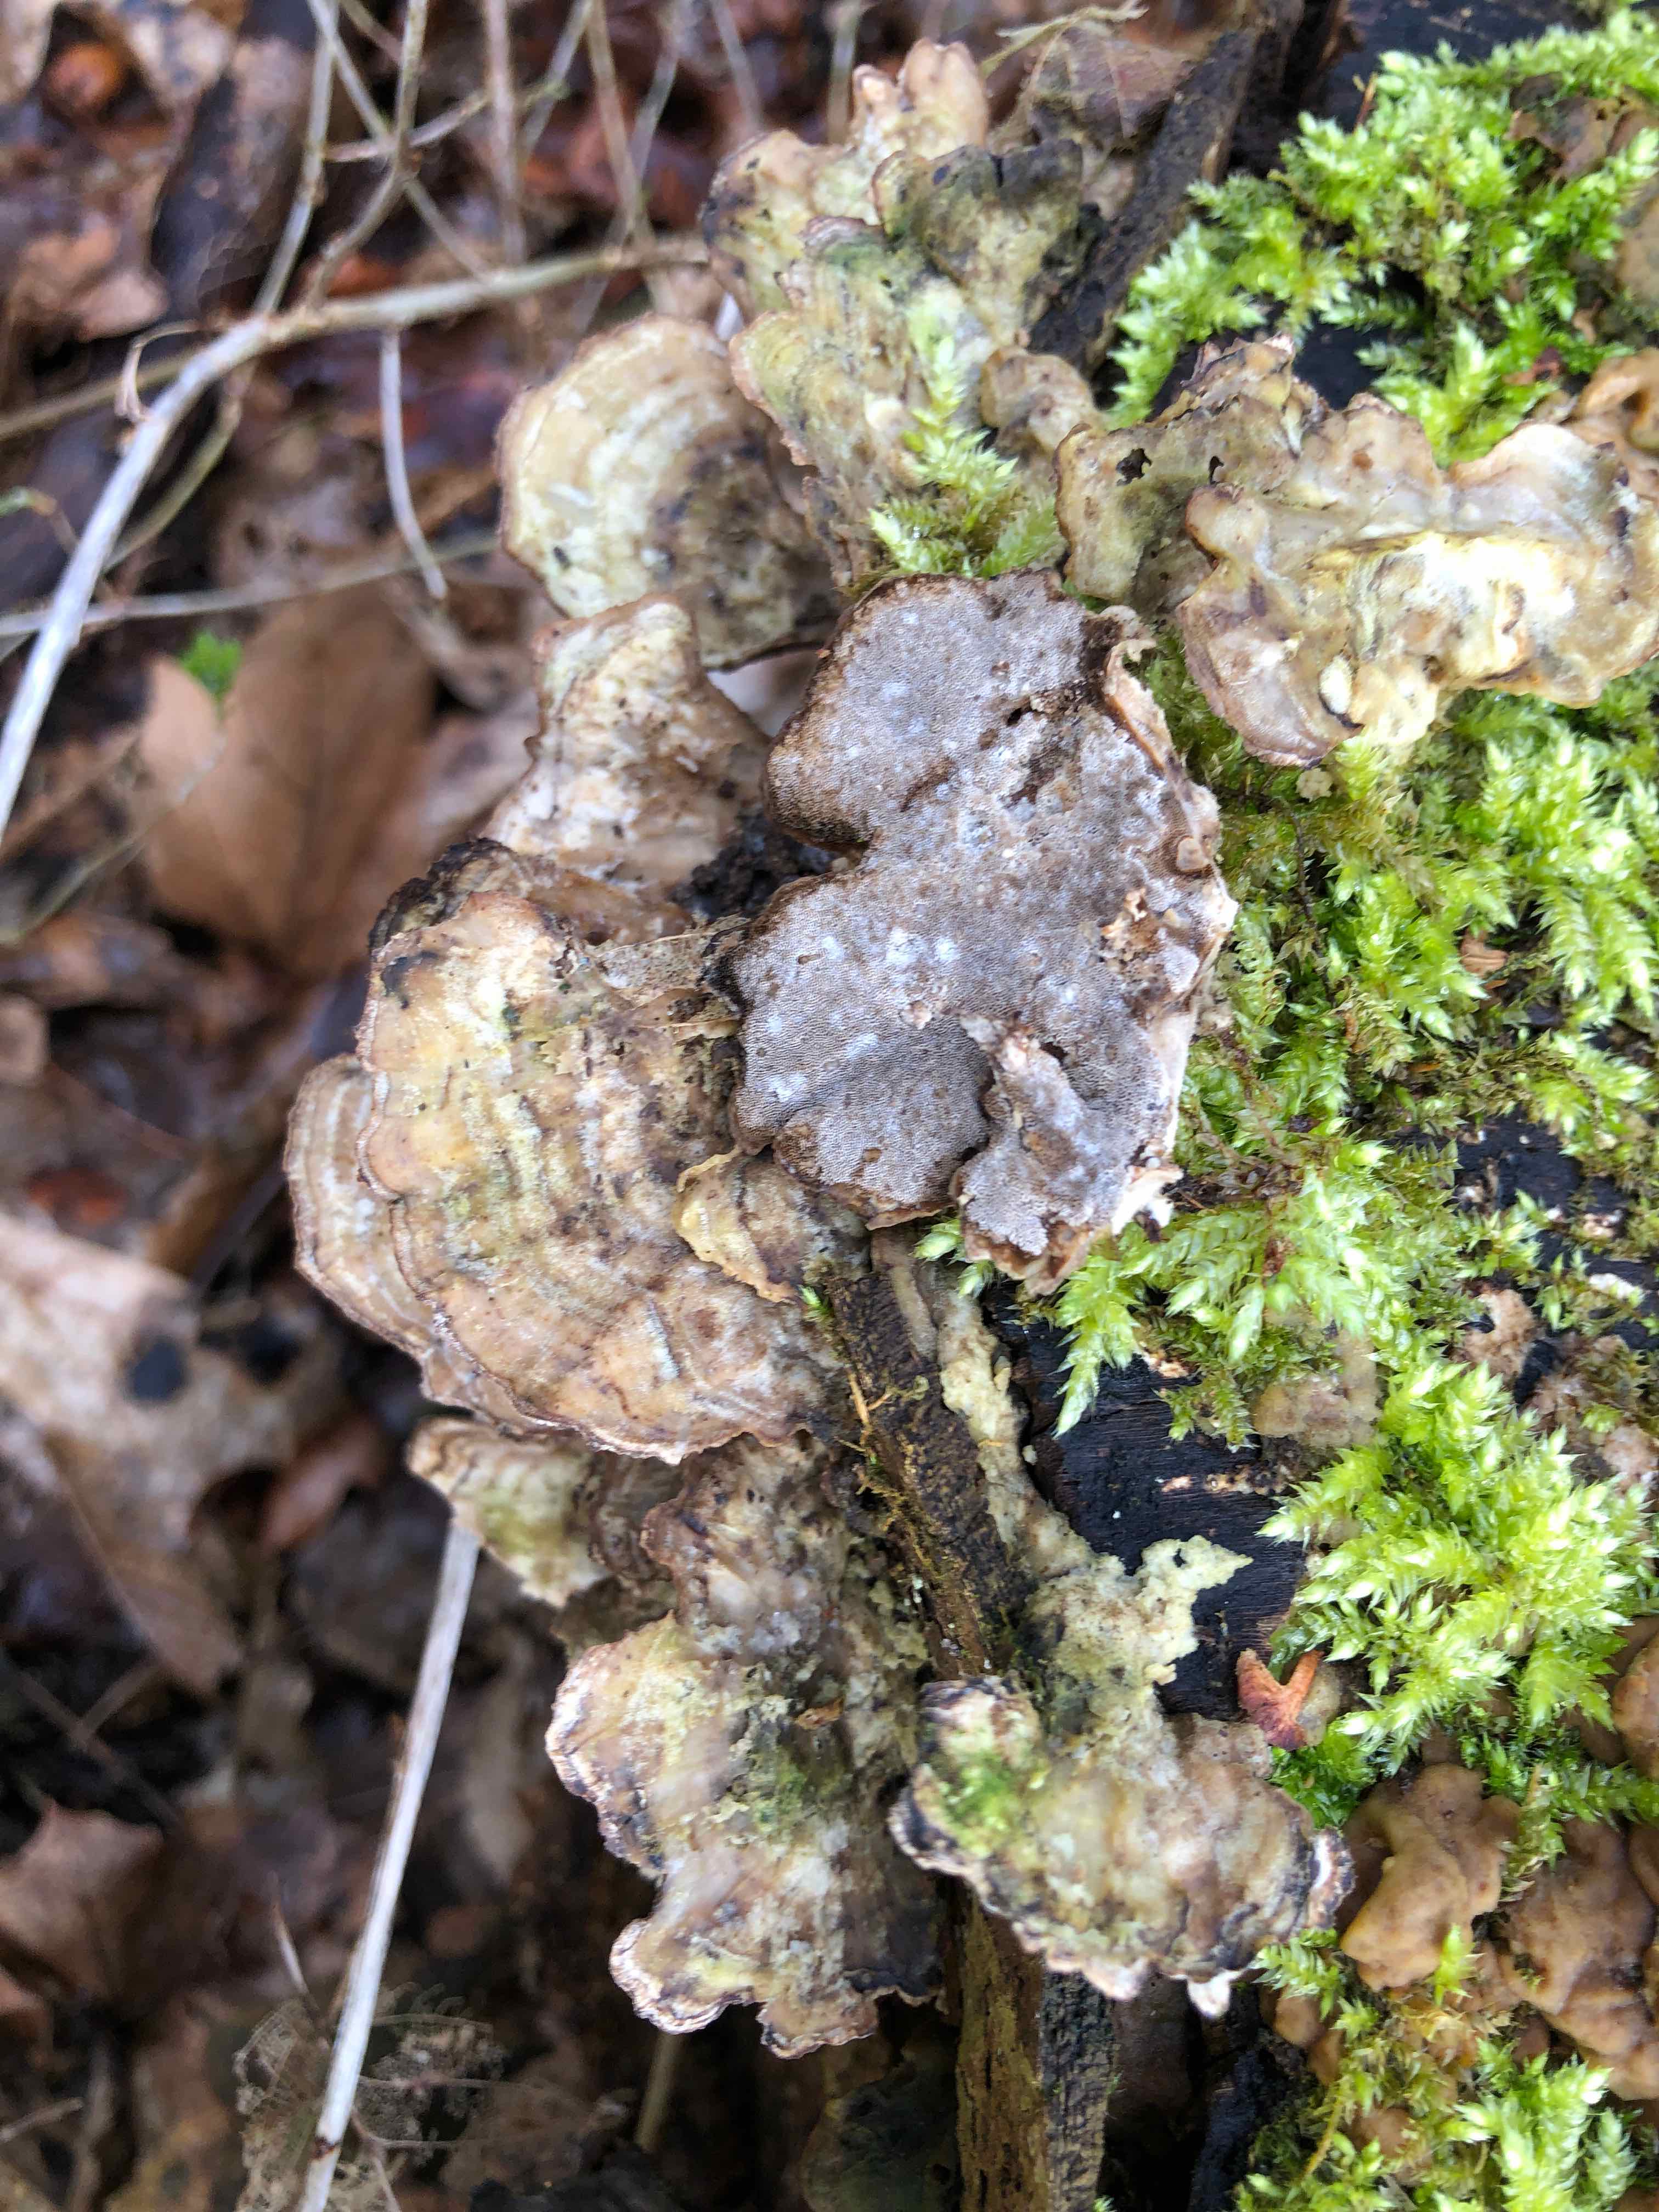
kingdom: Fungi
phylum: Basidiomycota
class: Agaricomycetes
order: Polyporales
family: Phanerochaetaceae
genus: Bjerkandera
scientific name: Bjerkandera adusta
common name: sveden sodporesvamp
